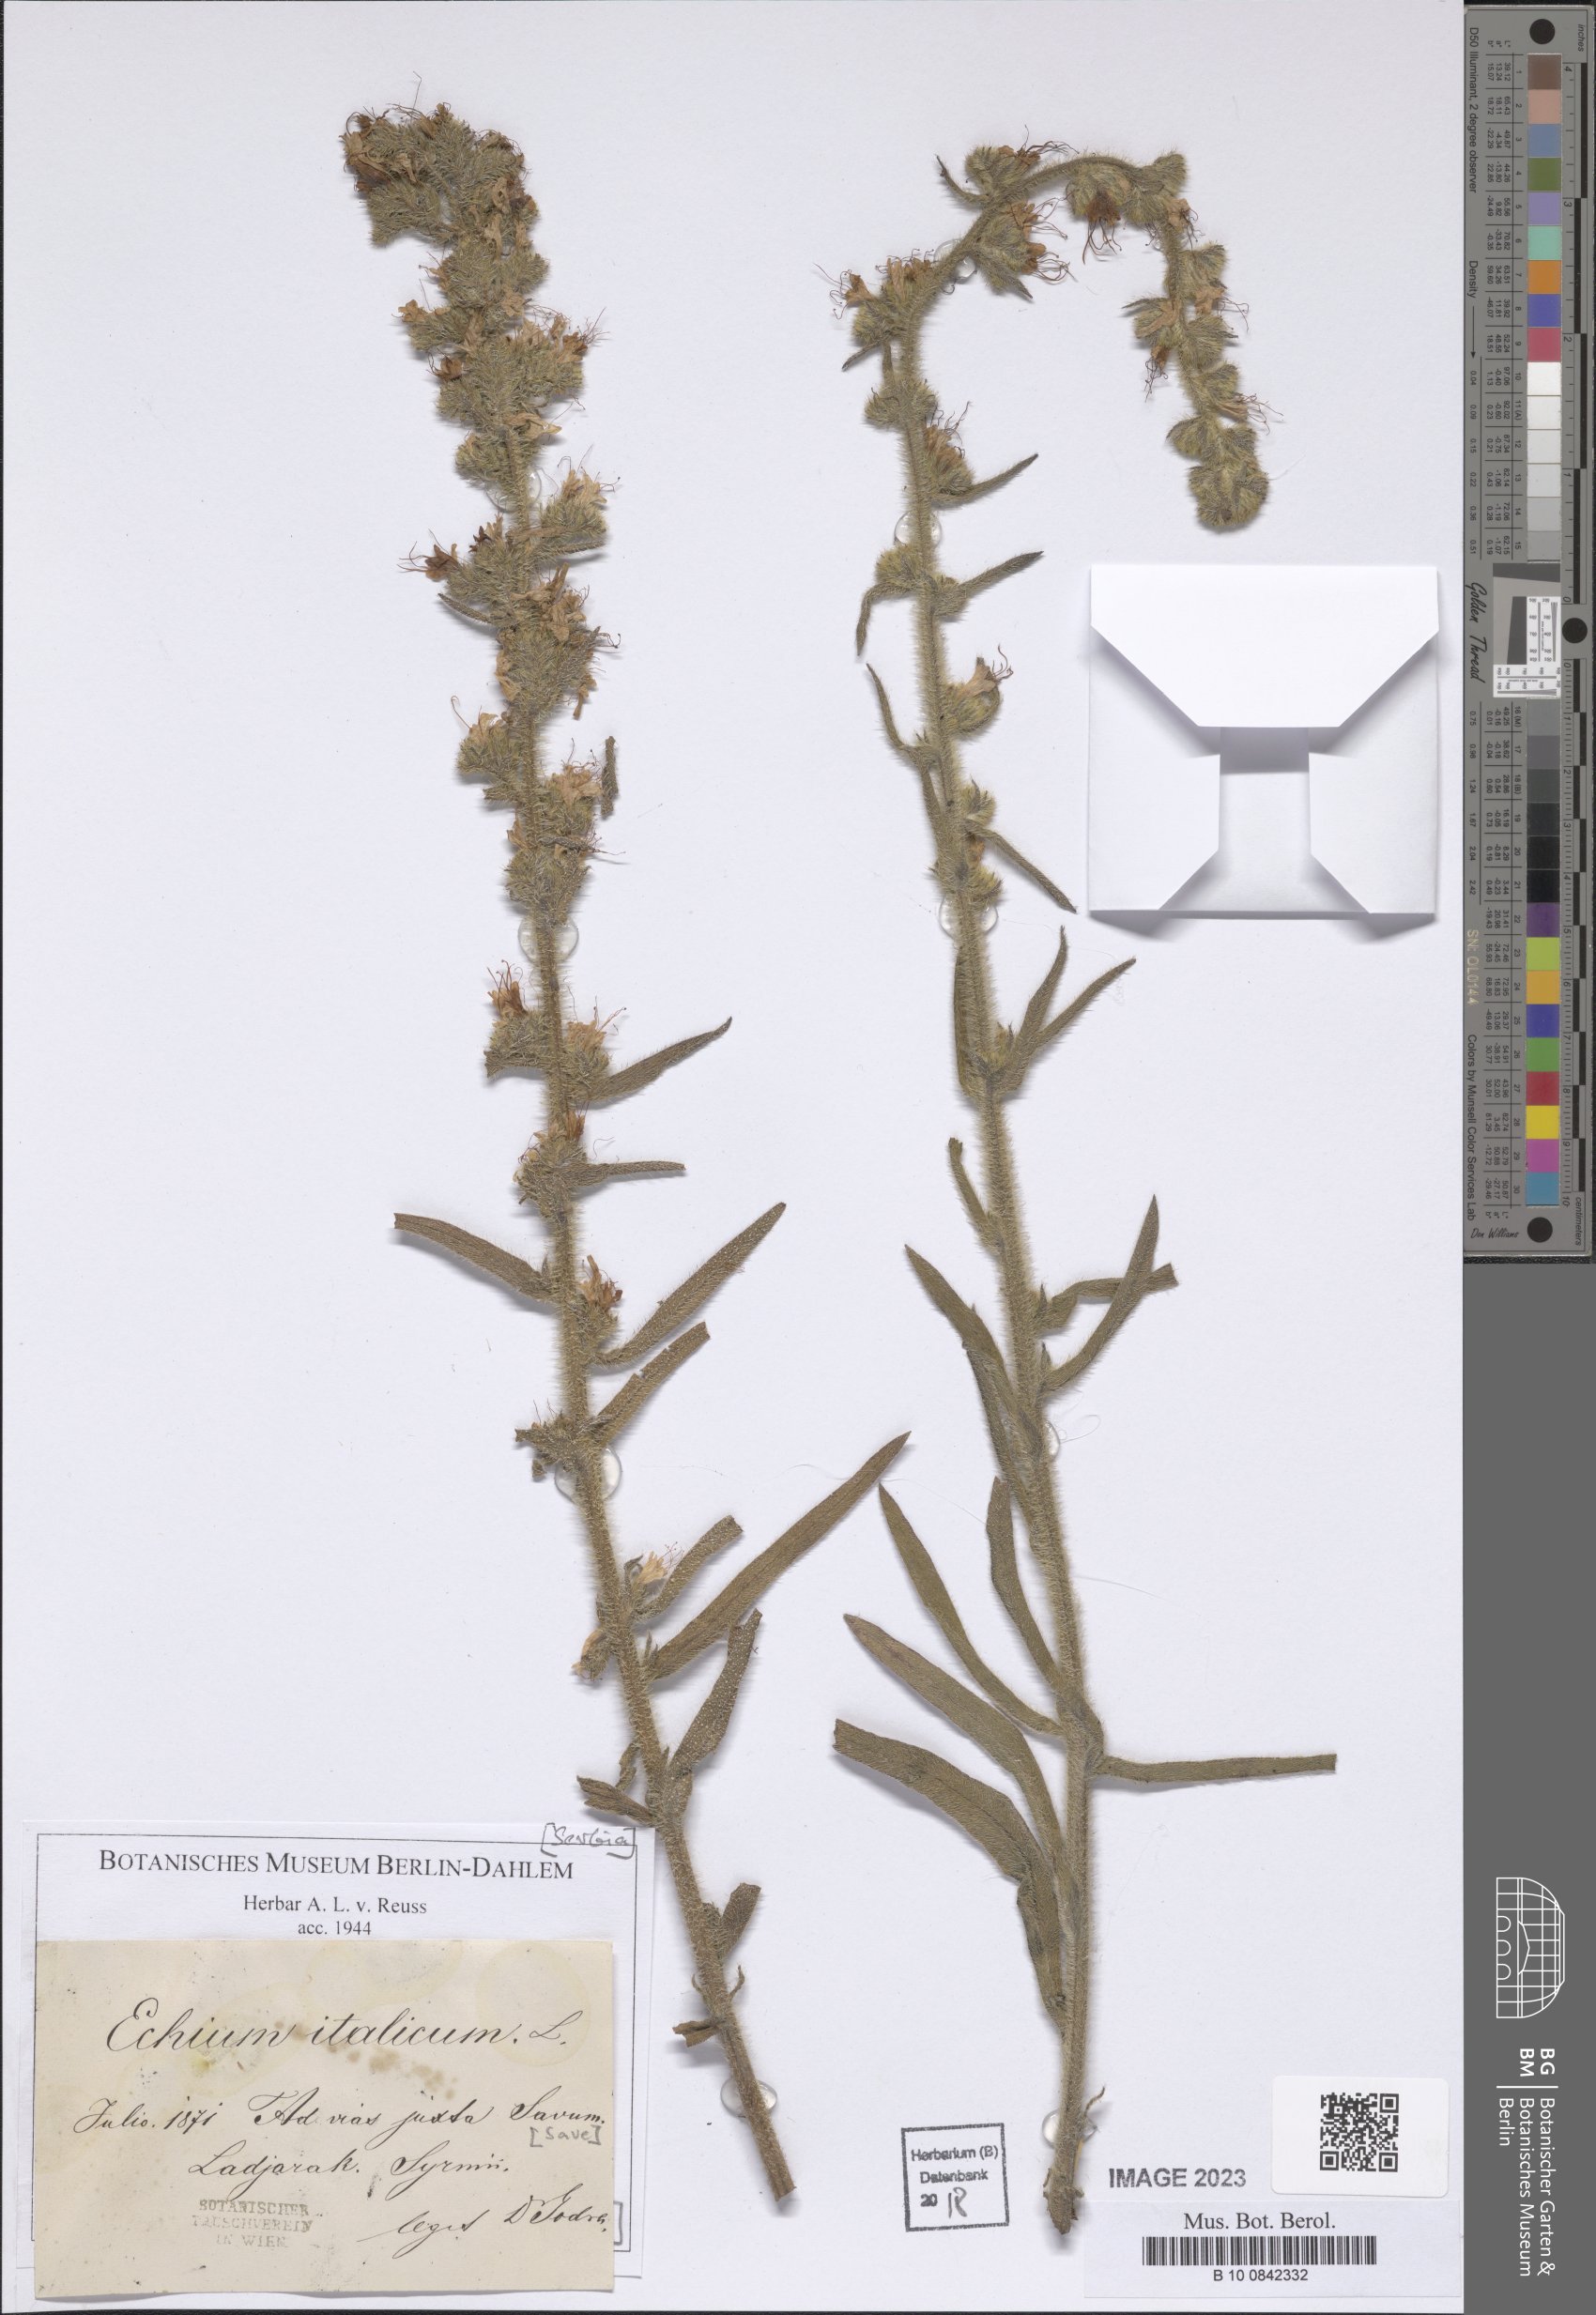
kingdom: Plantae
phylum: Tracheophyta
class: Magnoliopsida
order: Boraginales
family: Boraginaceae
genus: Echium
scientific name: Echium italicum
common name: Italian viper's bugloss
